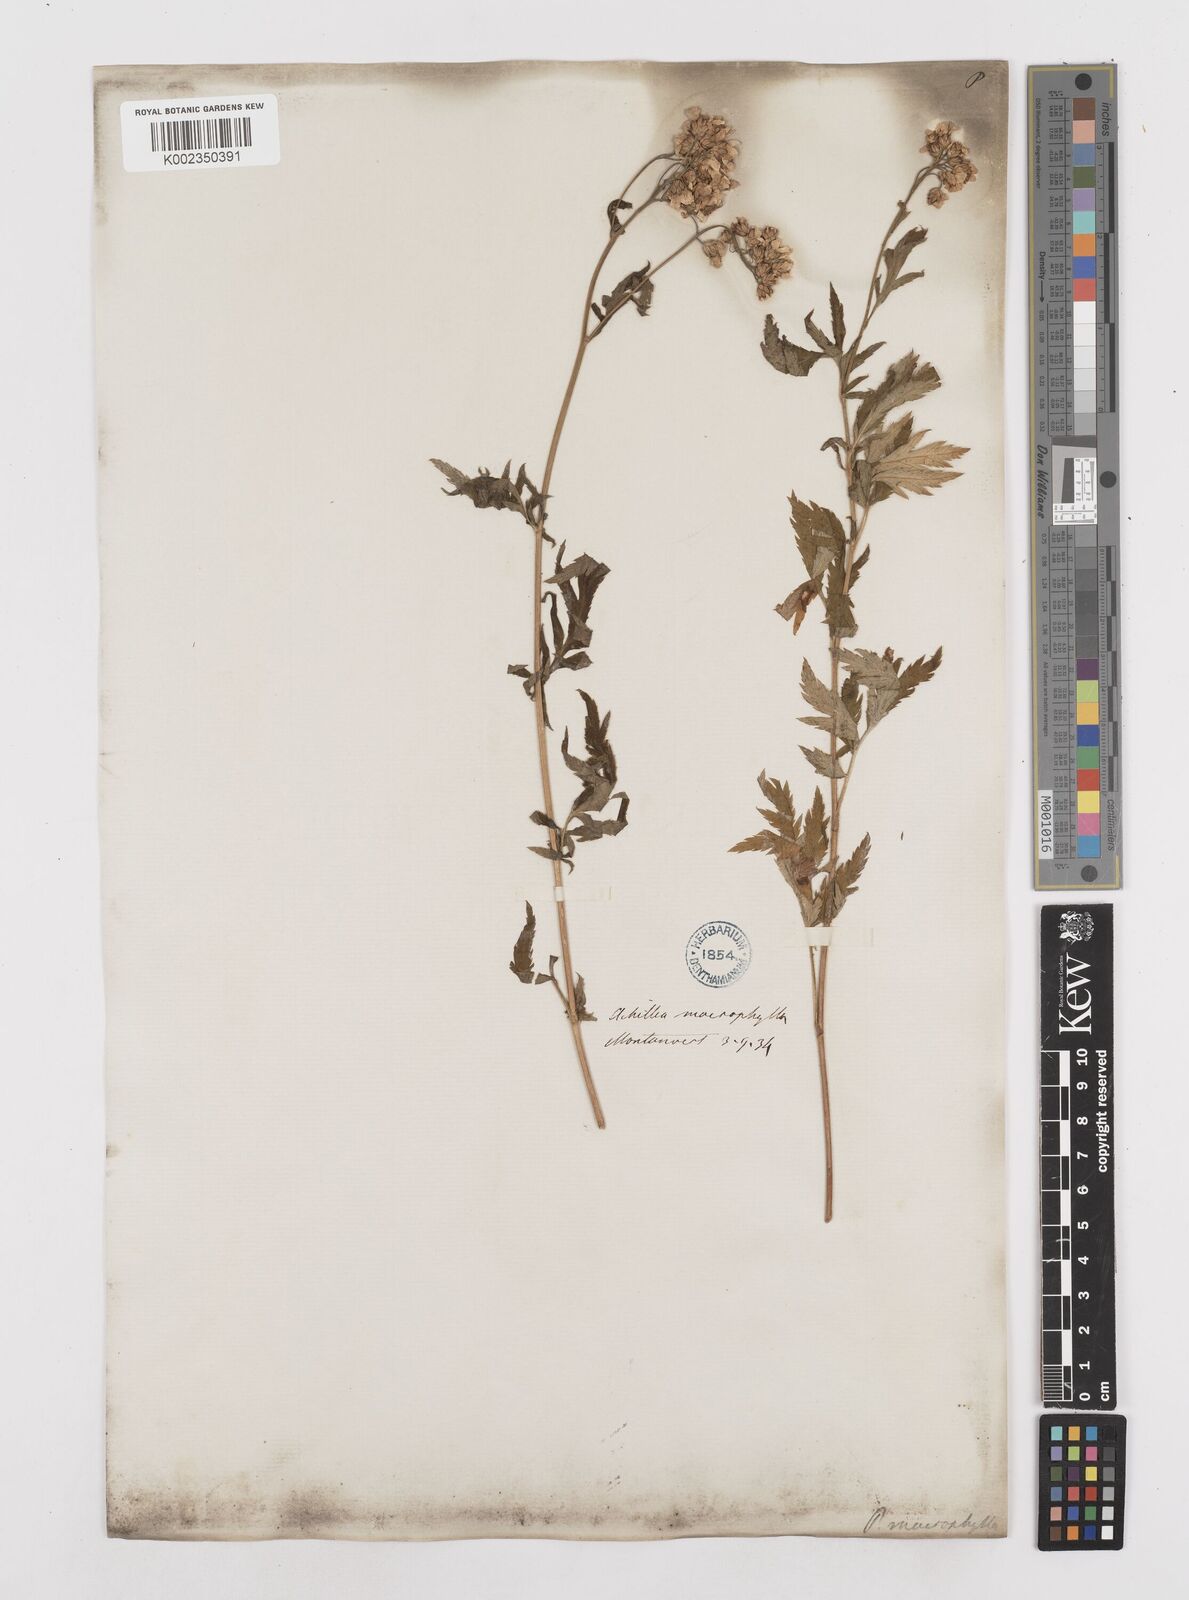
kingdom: Plantae
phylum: Tracheophyta
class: Magnoliopsida
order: Asterales
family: Asteraceae
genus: Achillea
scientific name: Achillea macrophylla
